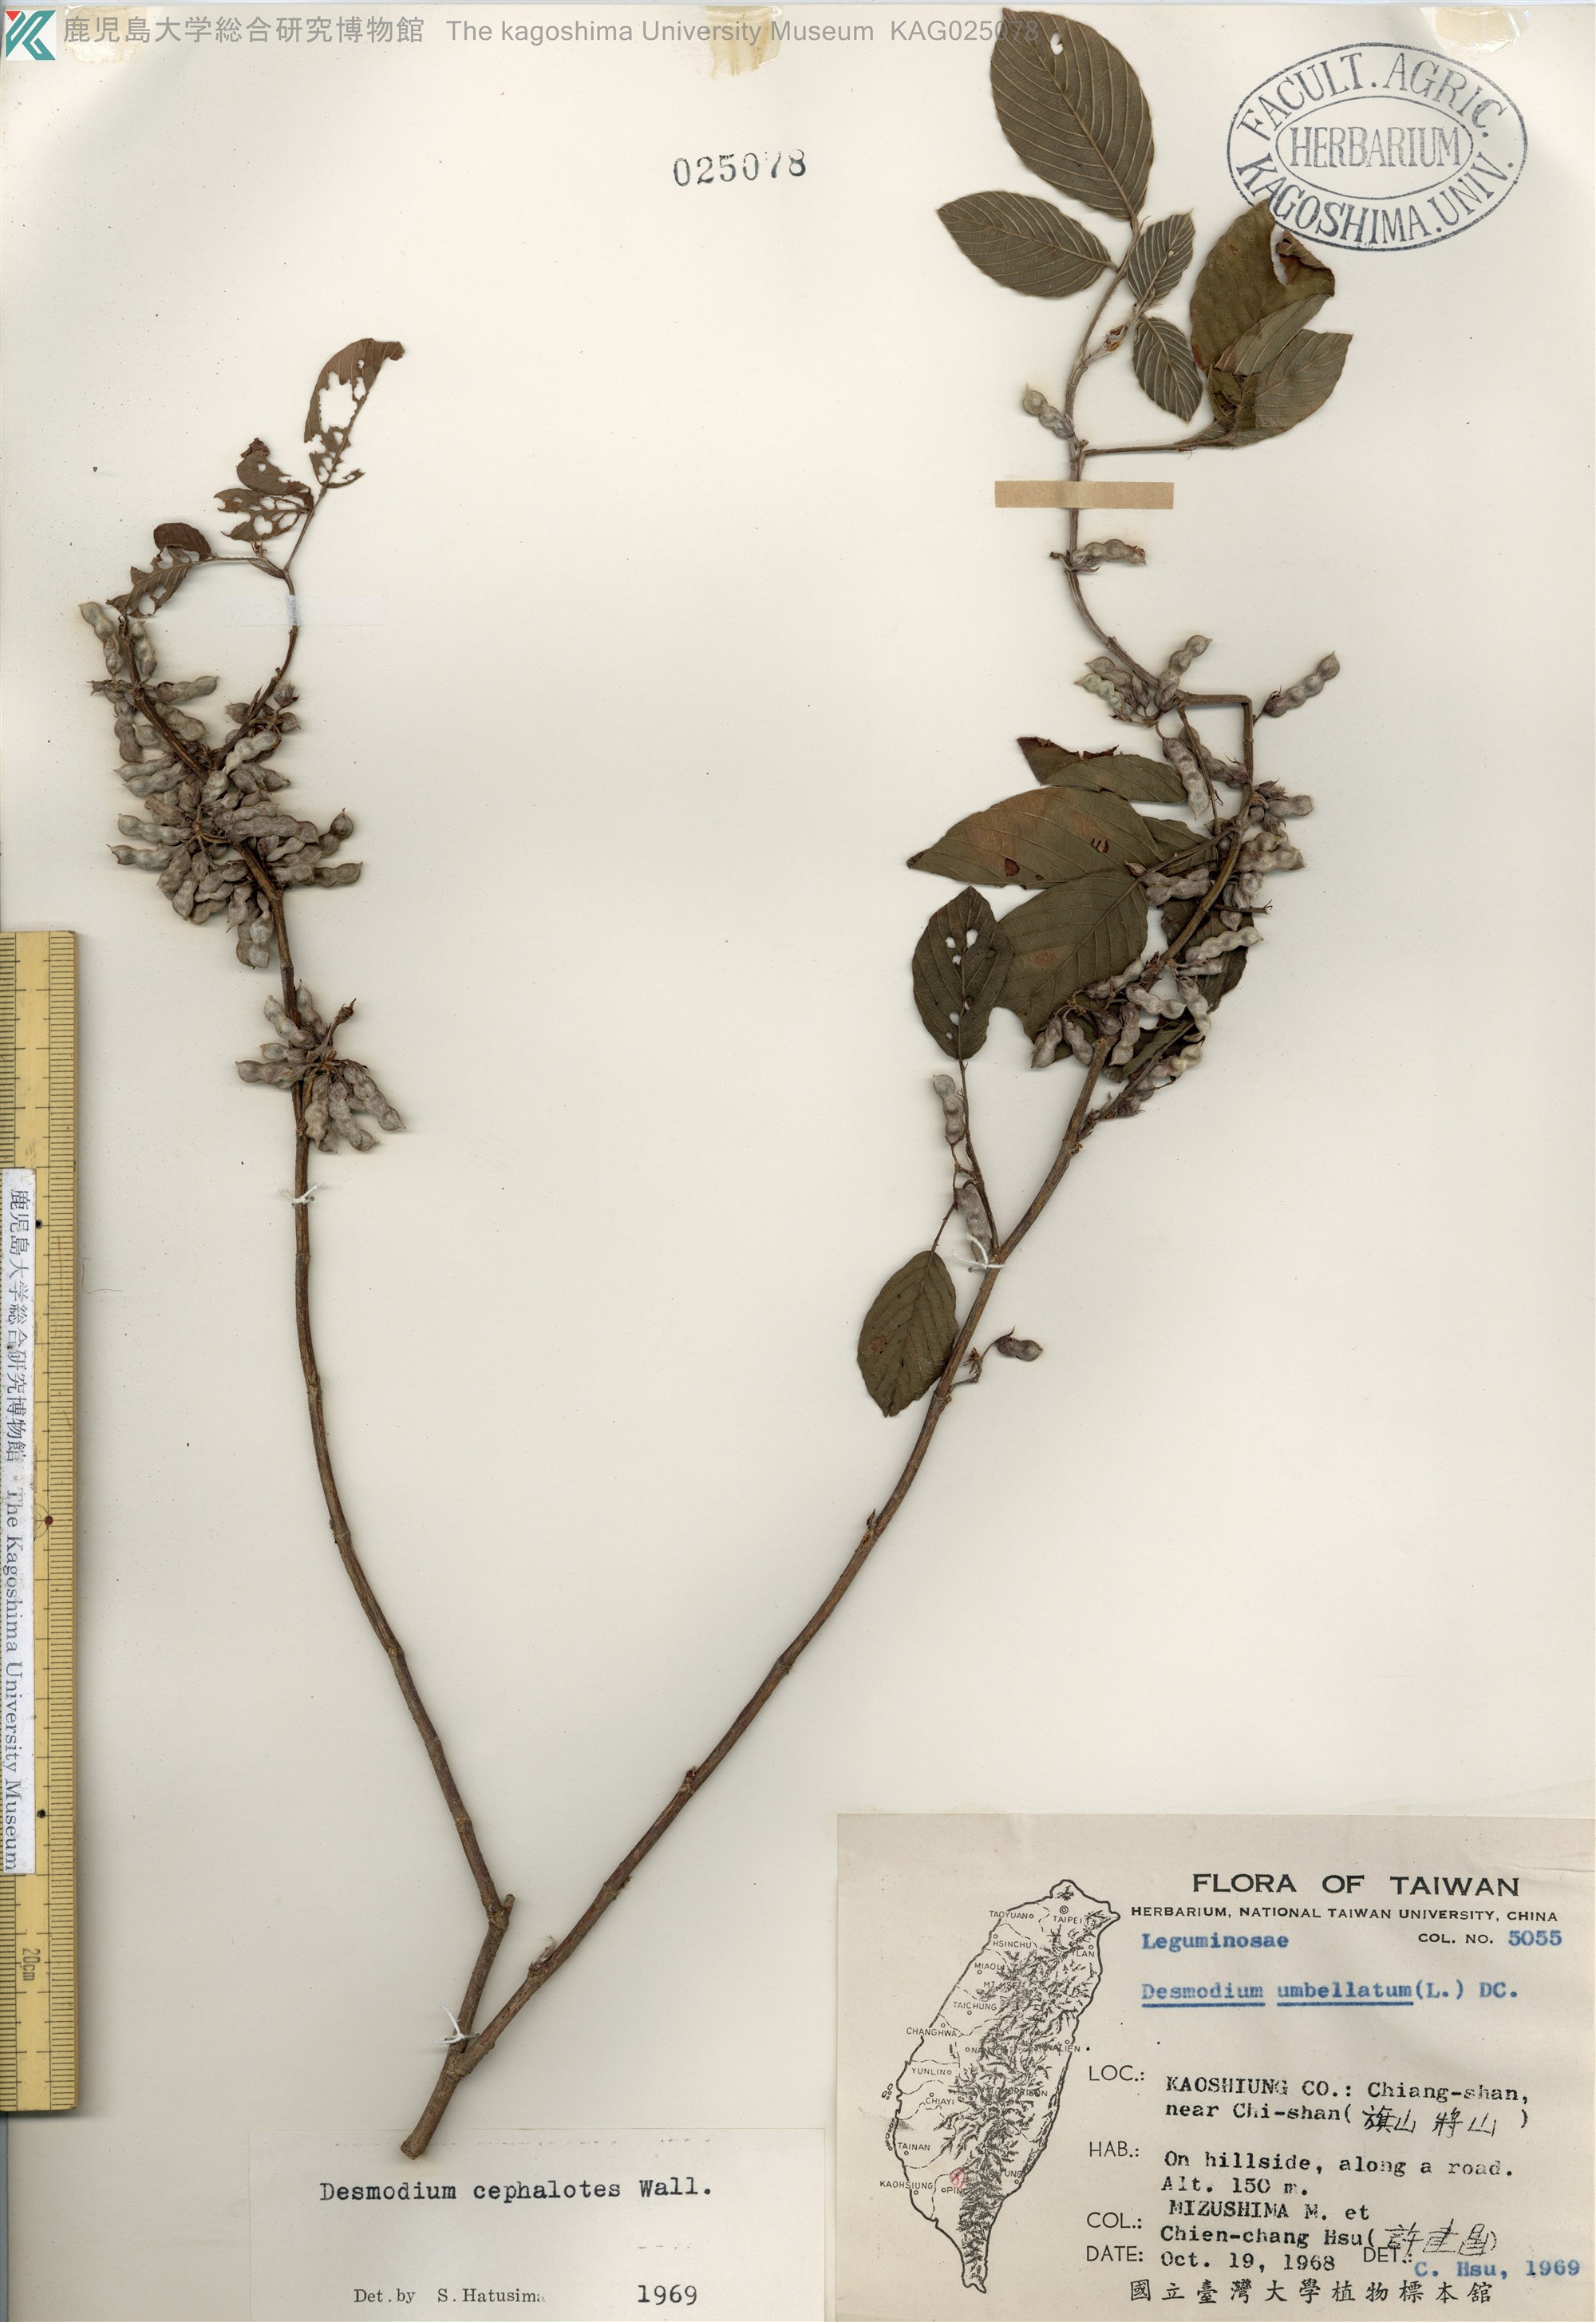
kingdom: Plantae
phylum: Tracheophyta
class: Magnoliopsida
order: Fabales
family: Fabaceae
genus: Dendrolobium
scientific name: Dendrolobium triangulare
